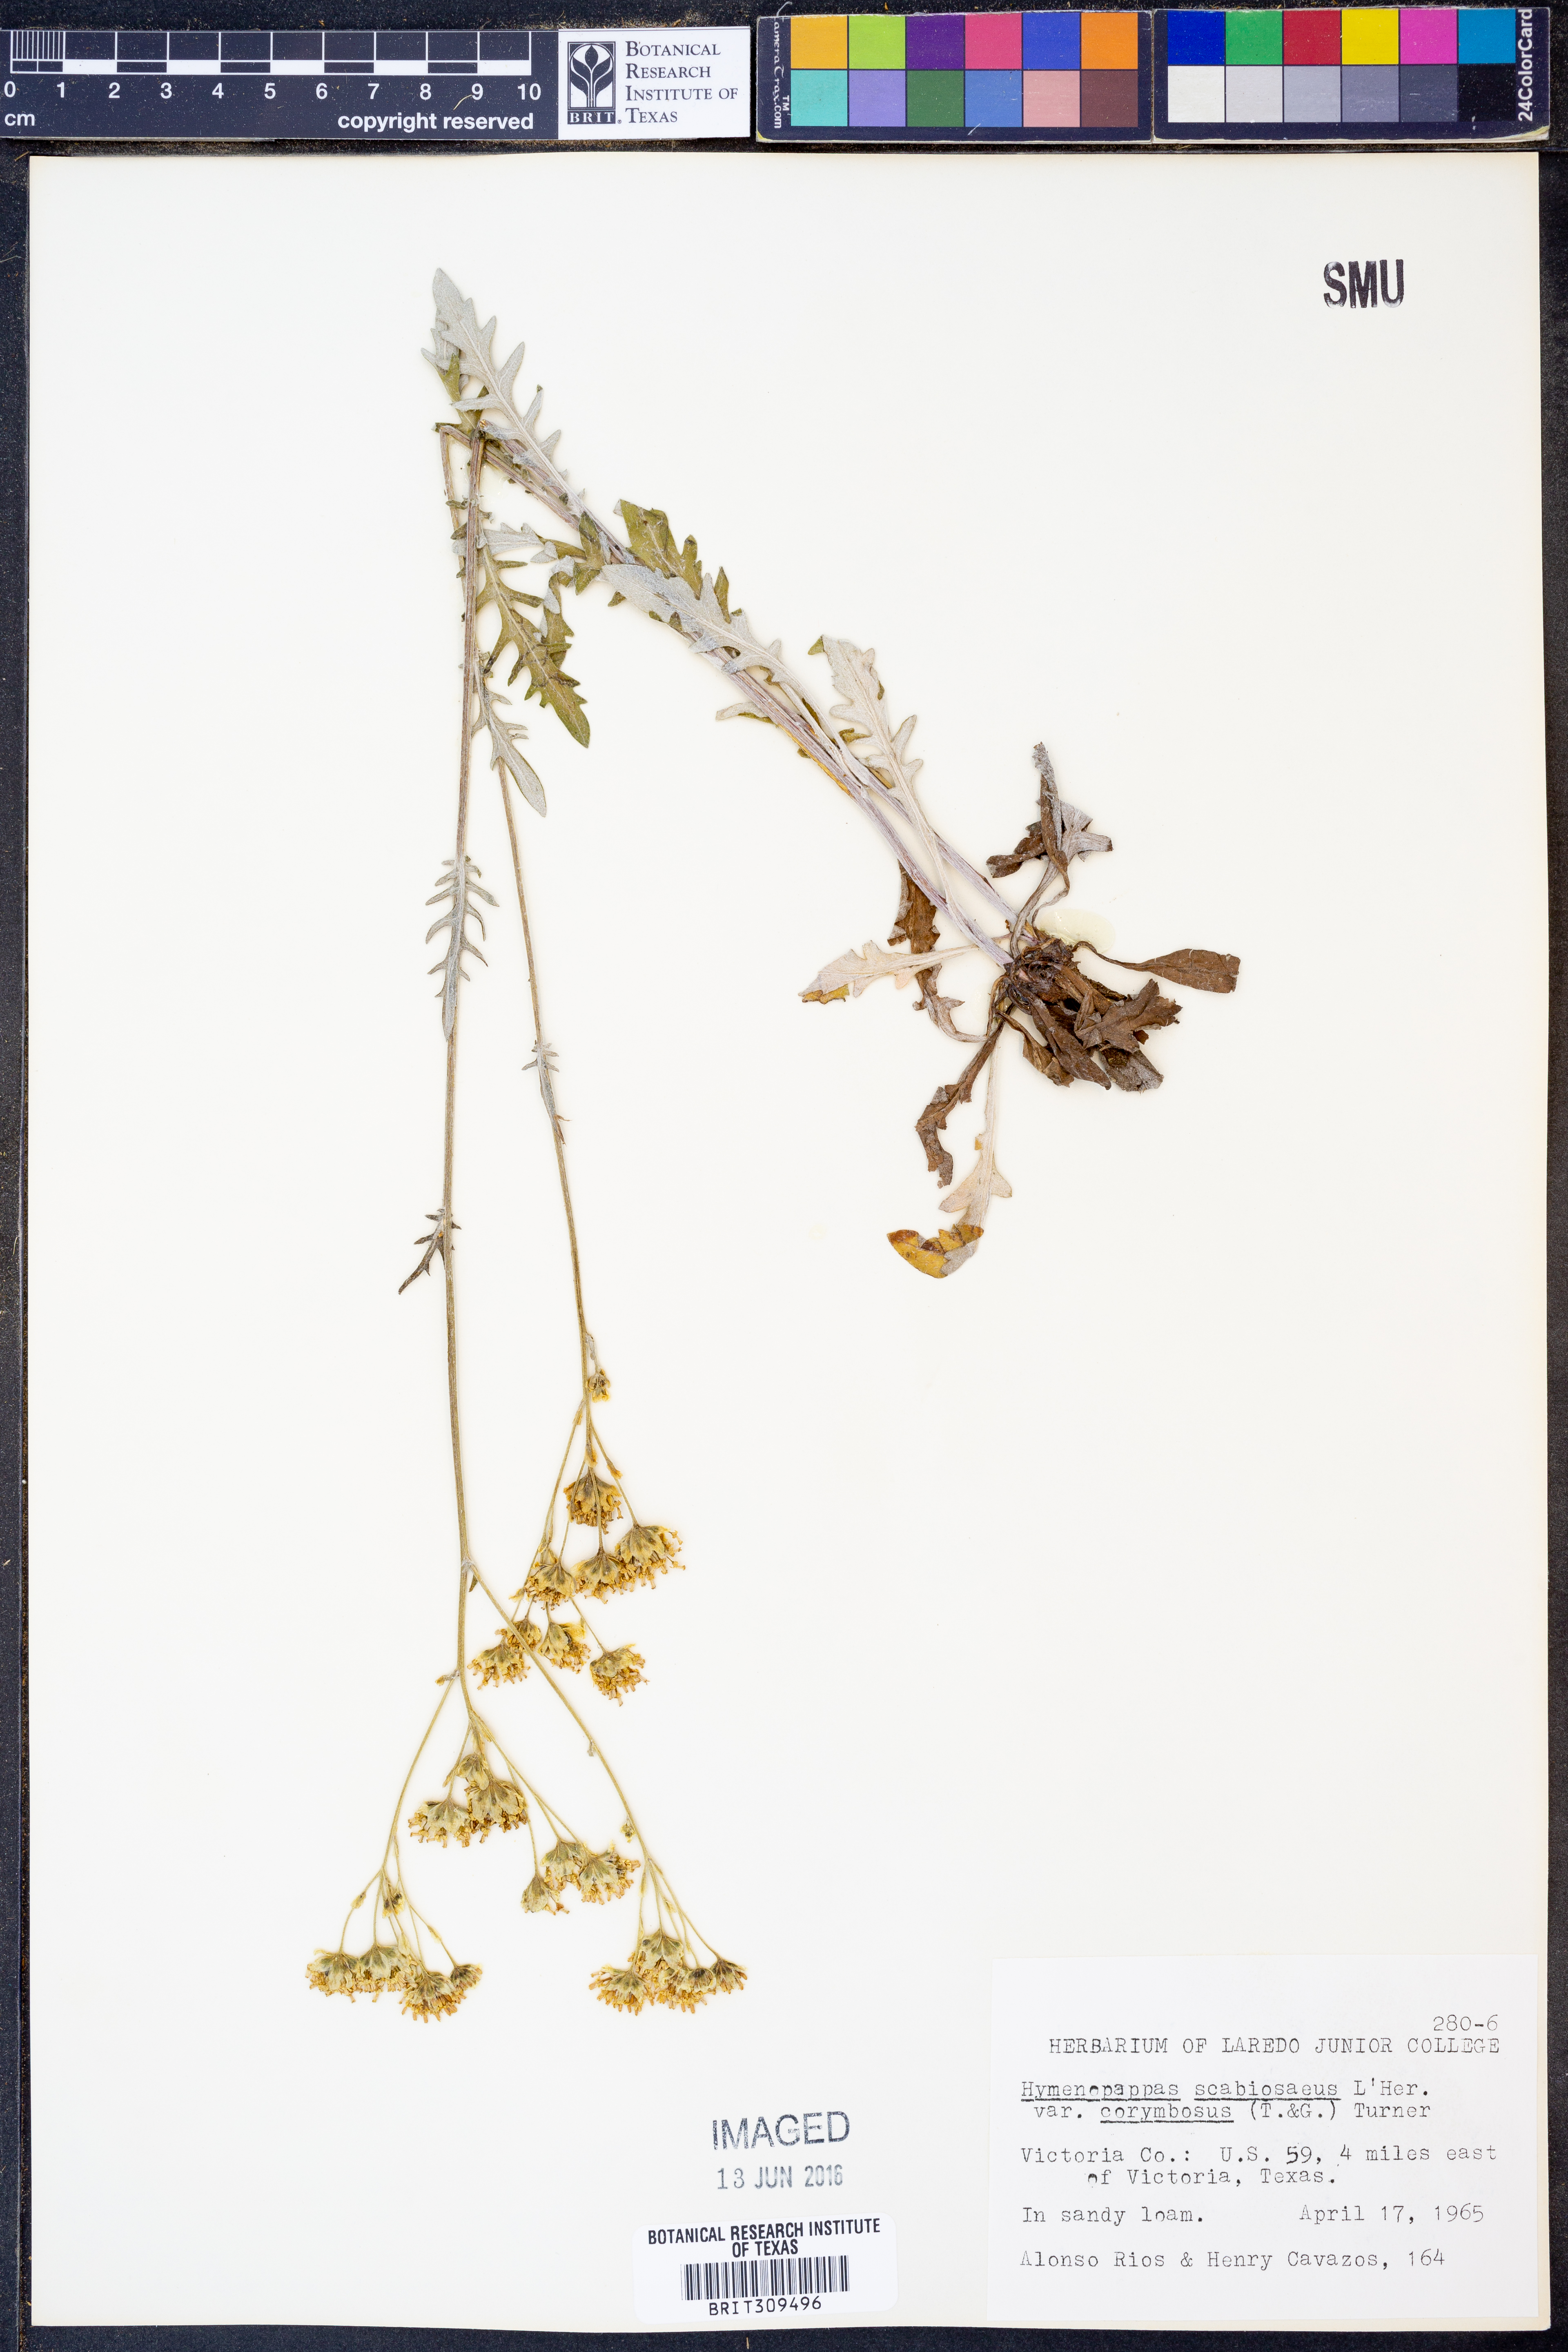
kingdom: Plantae
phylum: Tracheophyta
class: Magnoliopsida
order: Asterales
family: Asteraceae
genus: Hymenopappus
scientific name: Hymenopappus scabiosaeus
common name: Carolina woollywhite
